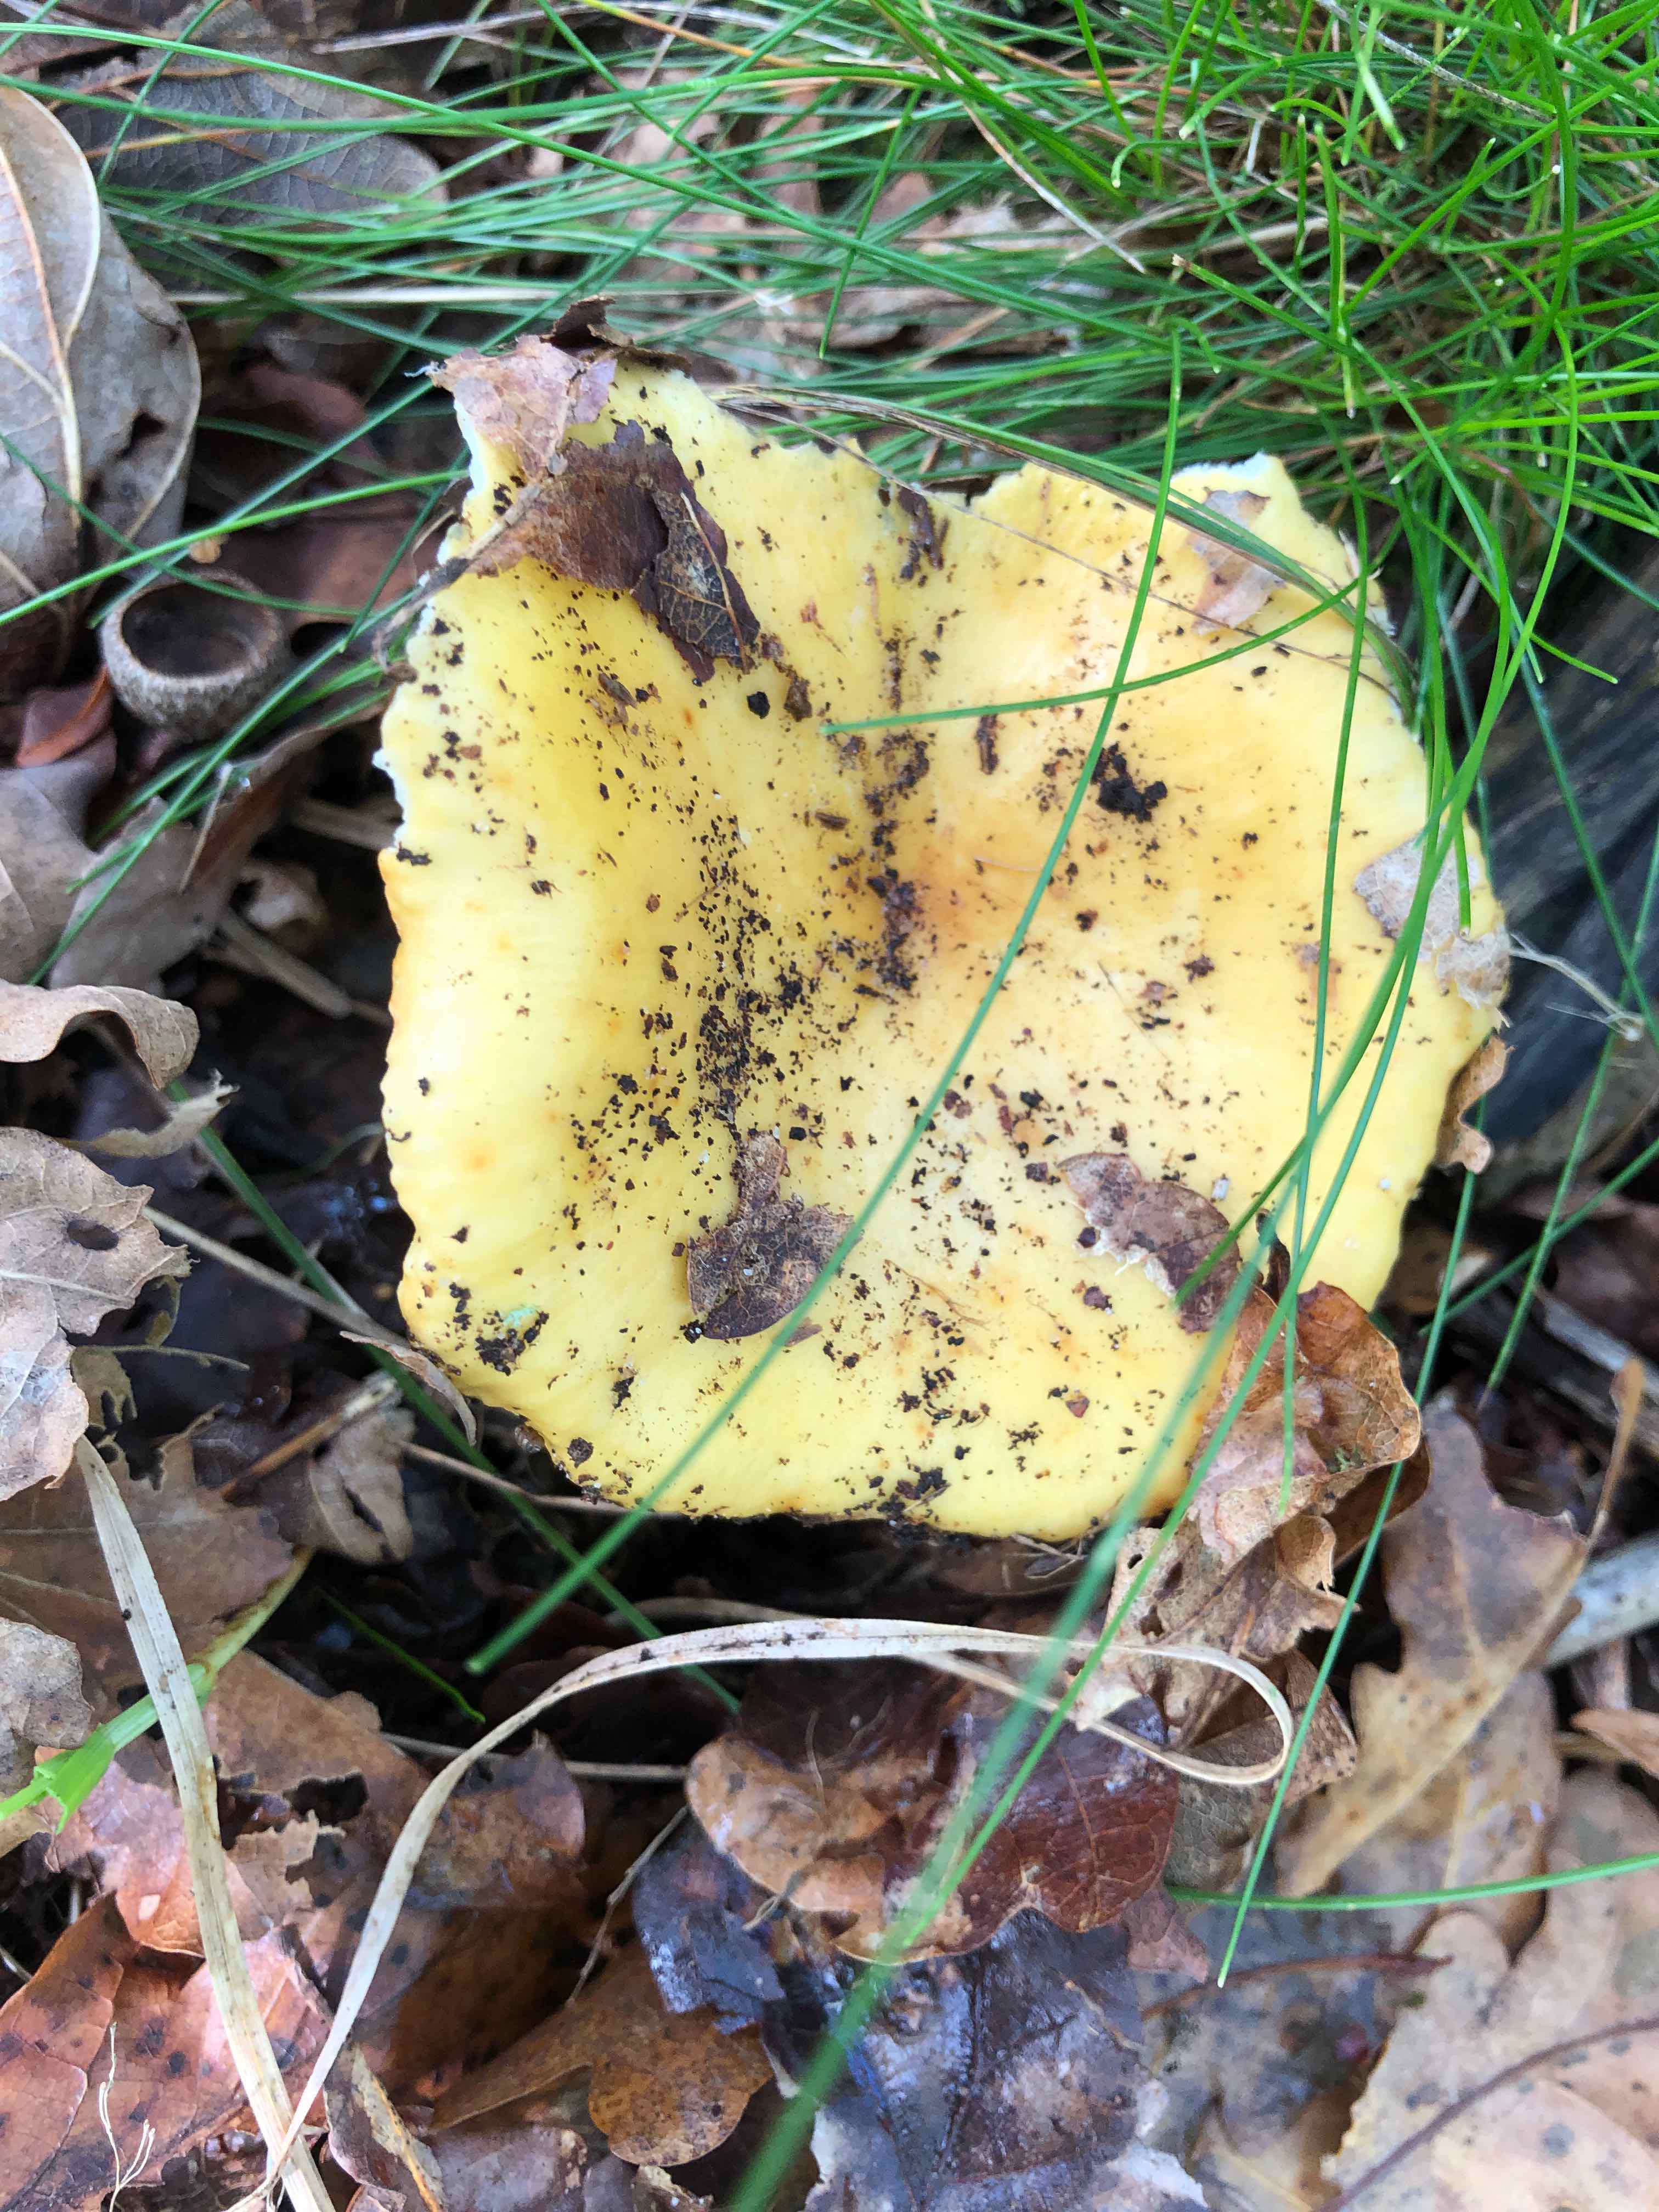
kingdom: Fungi
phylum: Basidiomycota
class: Agaricomycetes
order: Russulales
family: Russulaceae
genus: Russula
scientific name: Russula ochroleuca
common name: okkergul skørhat
